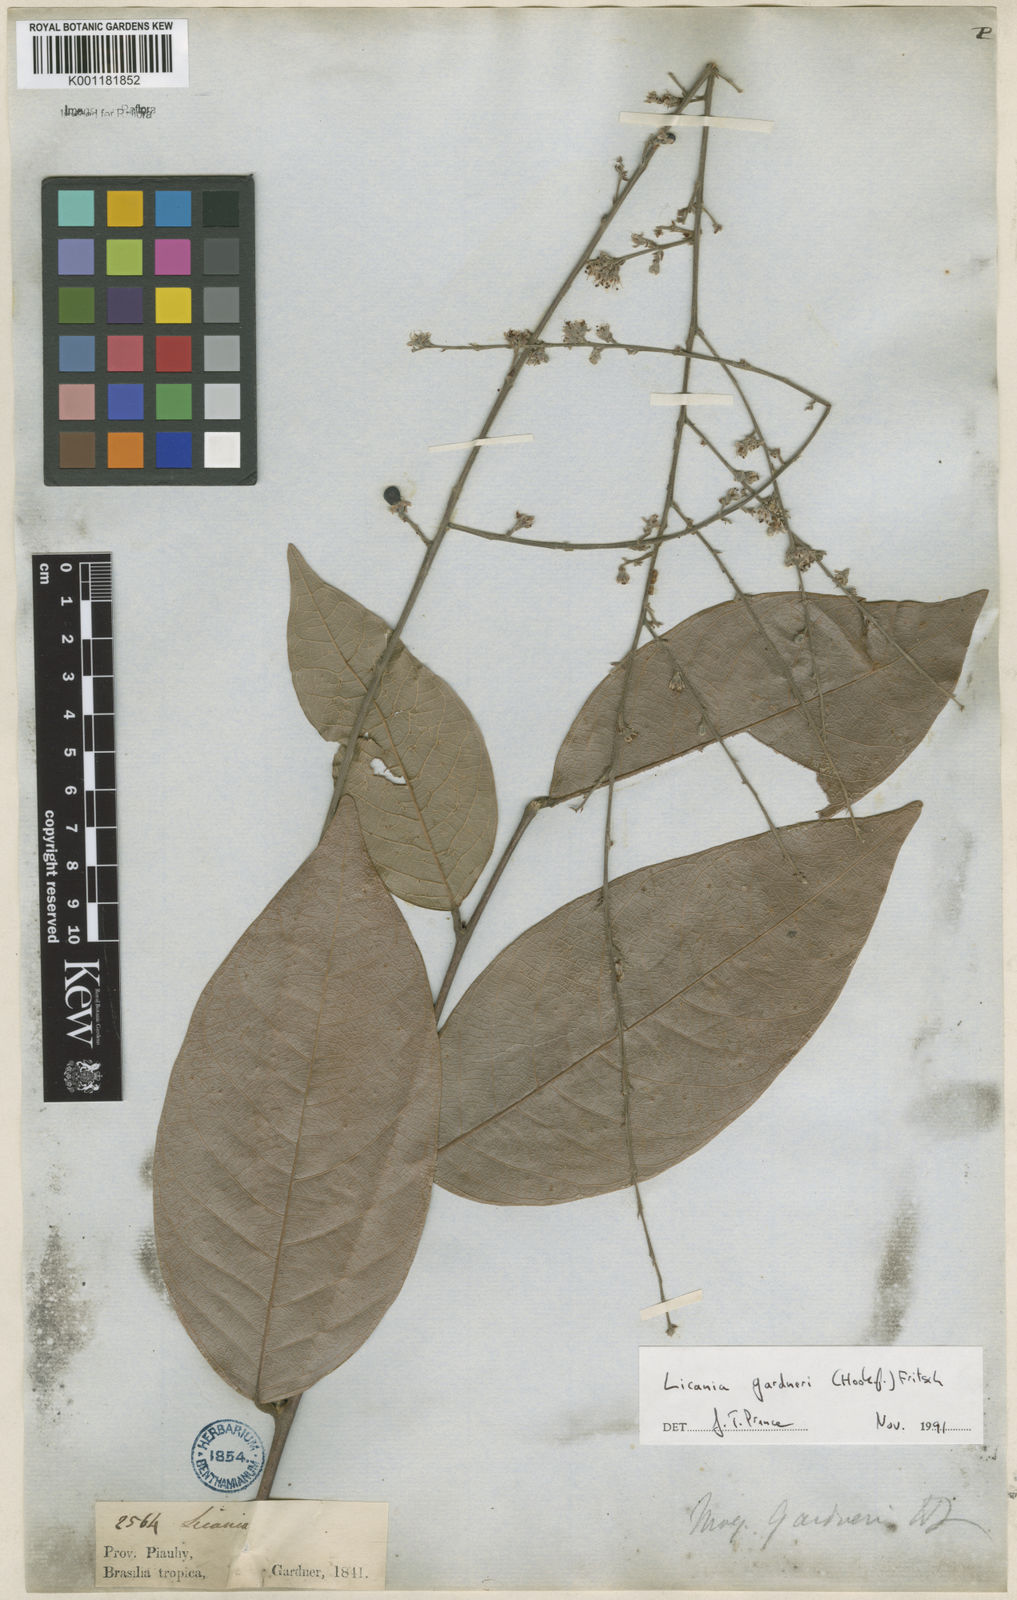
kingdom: Plantae
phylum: Tracheophyta
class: Magnoliopsida
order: Malpighiales
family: Chrysobalanaceae
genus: Leptobalanus
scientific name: Leptobalanus gardneri
